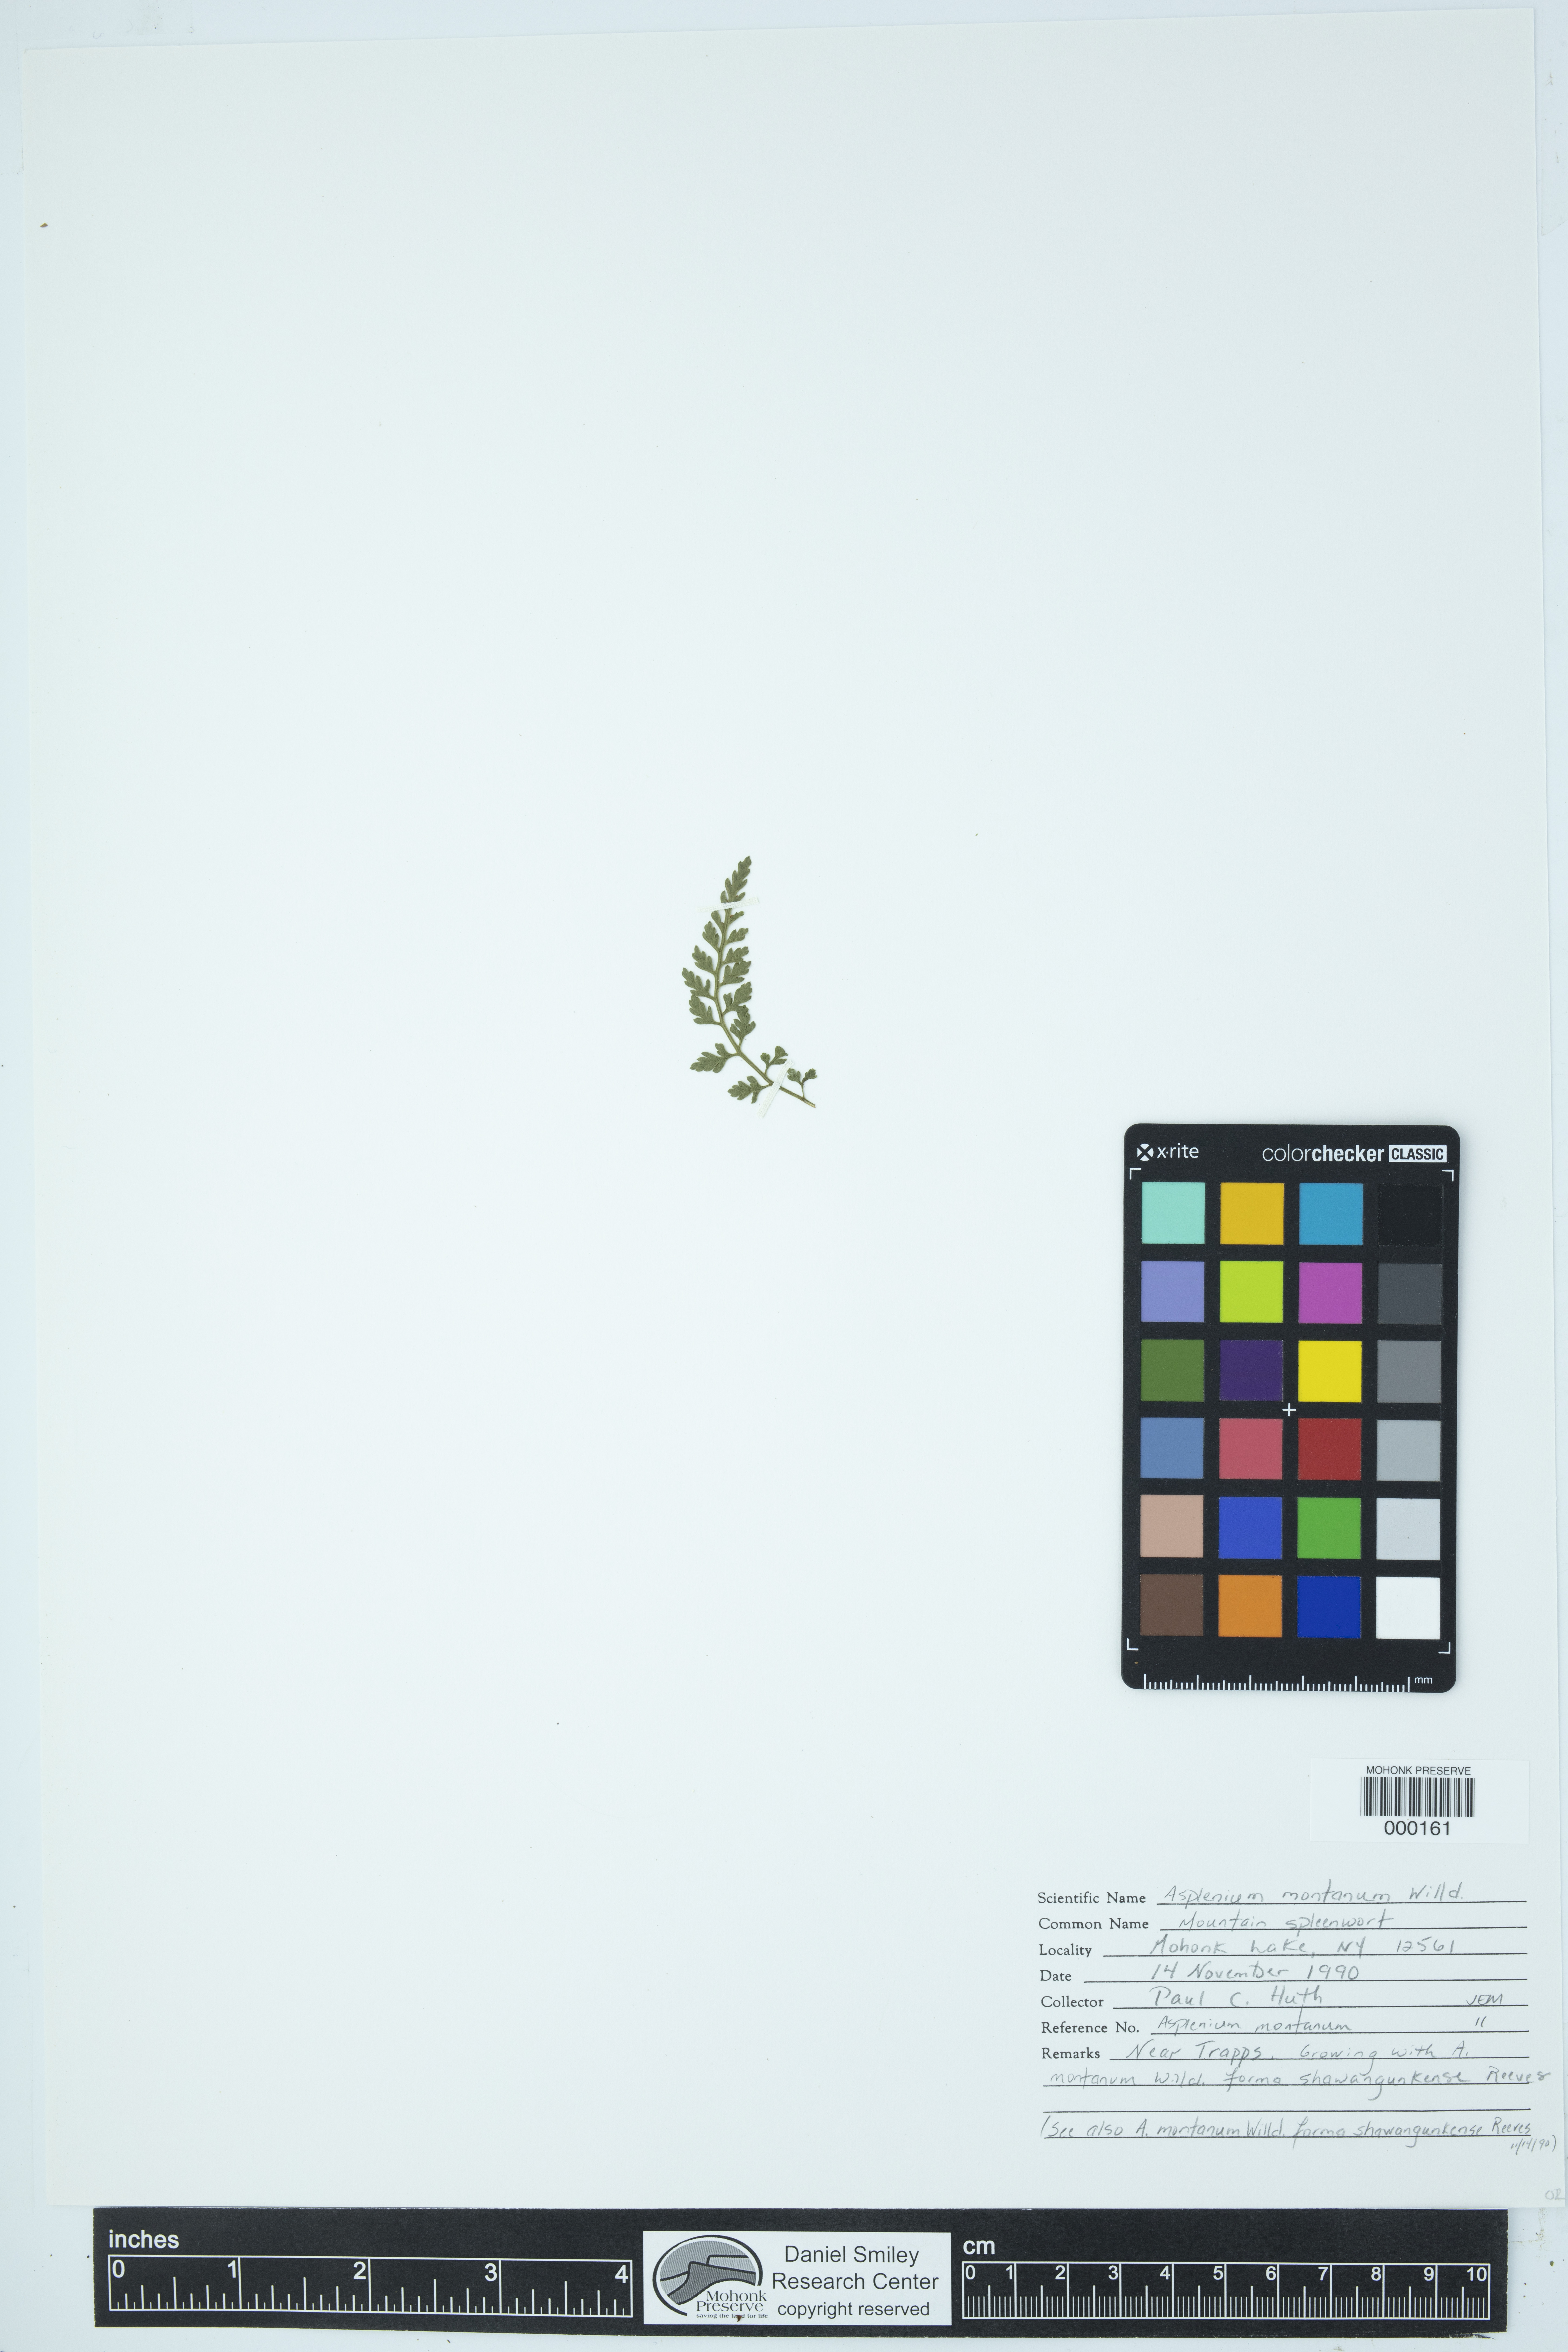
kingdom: Plantae
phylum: Tracheophyta
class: Polypodiopsida
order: Polypodiales
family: Aspleniaceae
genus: Asplenium
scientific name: Asplenium montanum
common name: Mountain spleenwort
